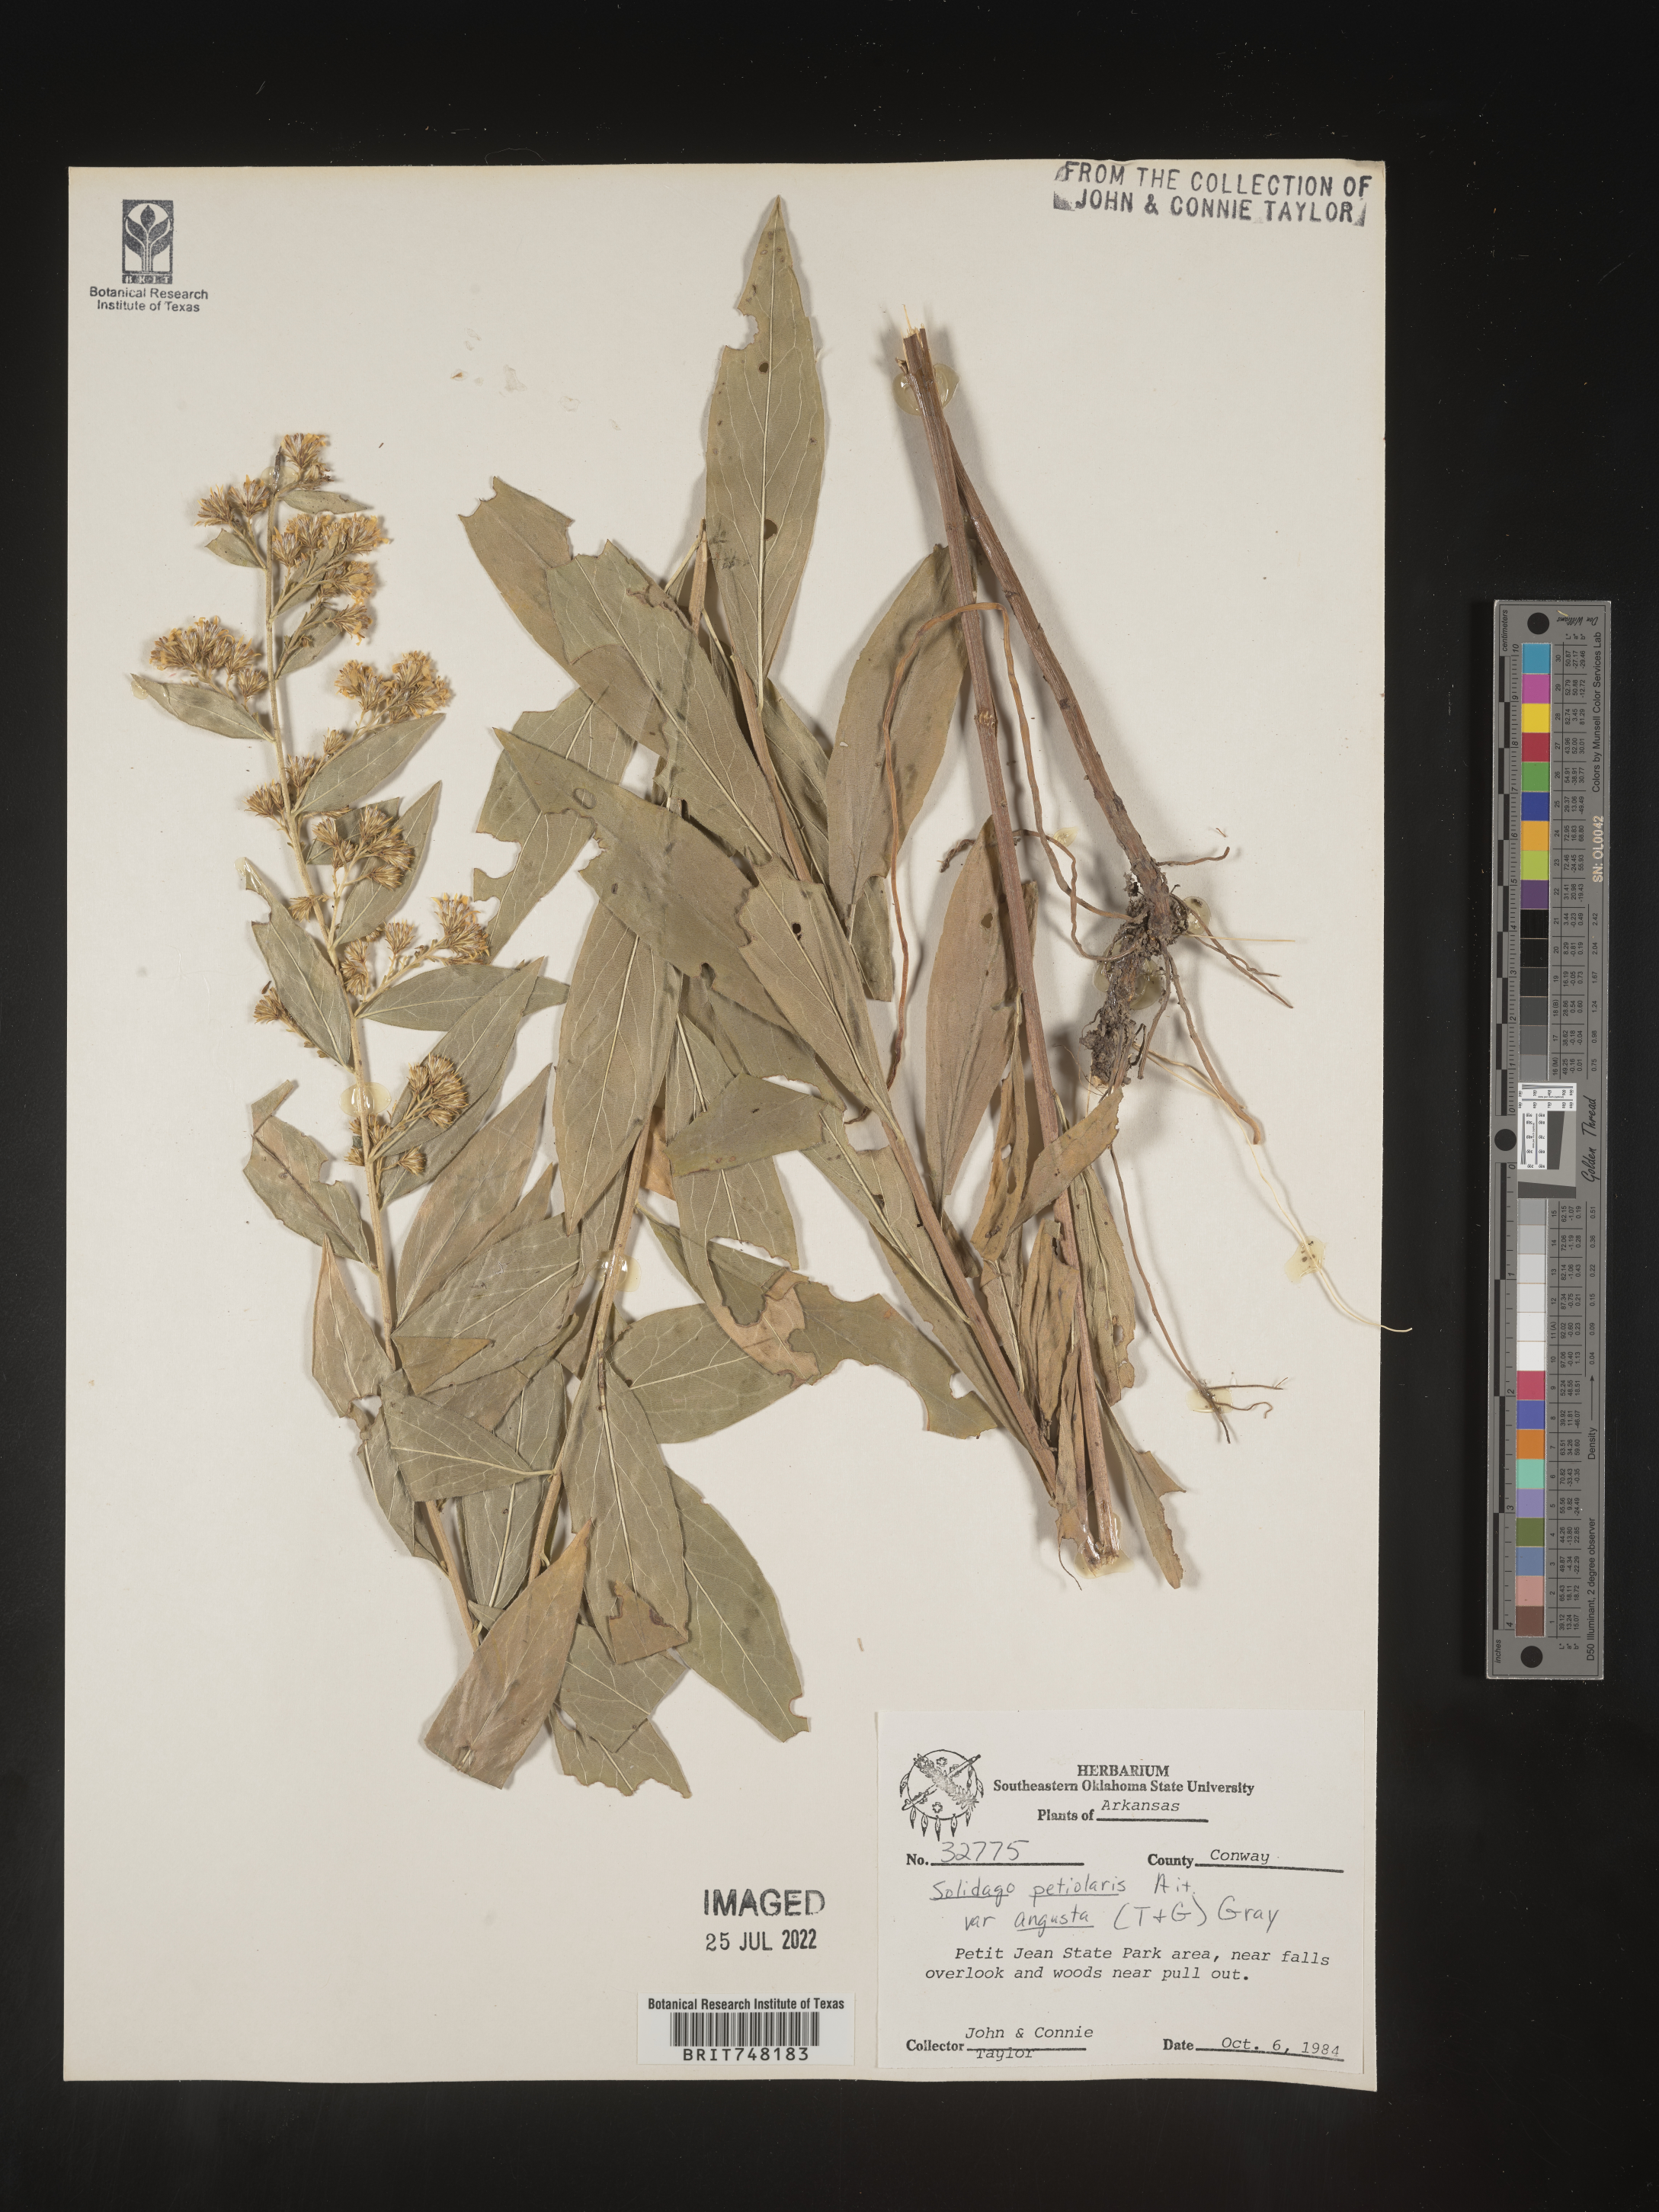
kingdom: Plantae
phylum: Tracheophyta
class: Magnoliopsida
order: Asterales
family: Asteraceae
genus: Solidago
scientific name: Solidago petiolaris
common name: Downy ragged goldenrod
